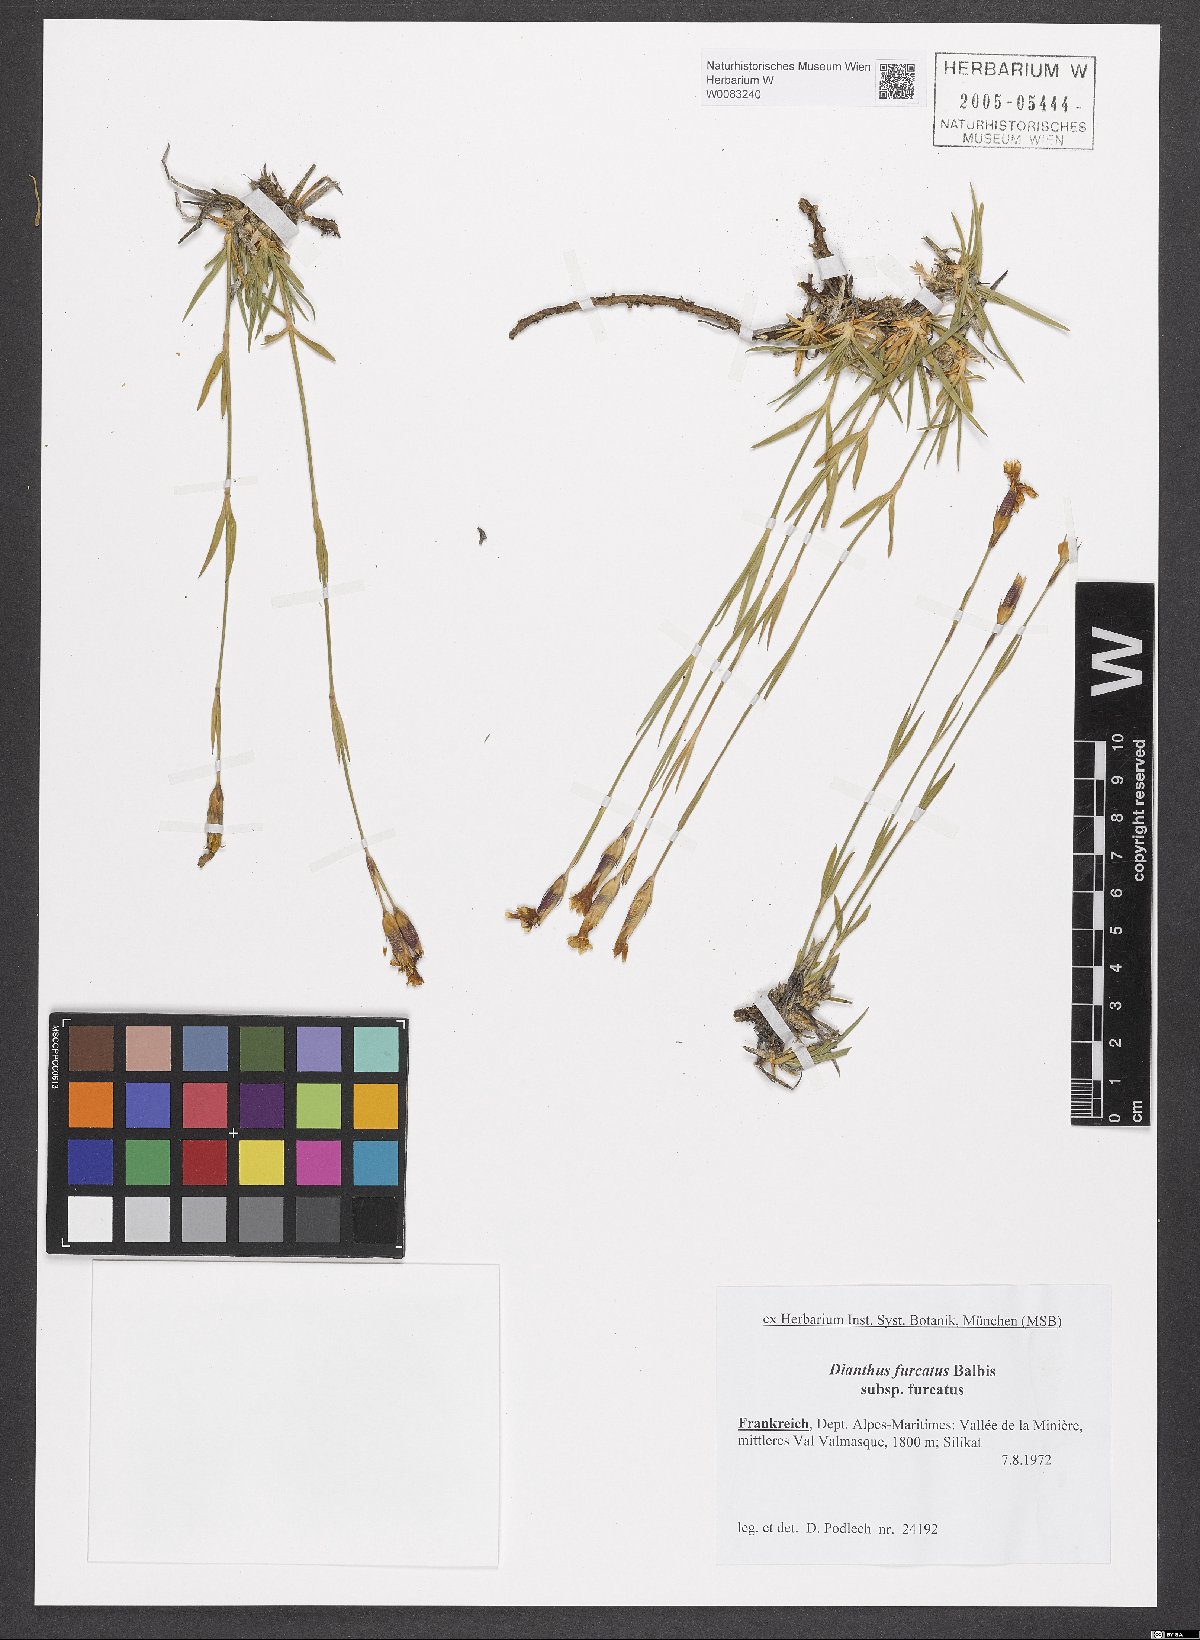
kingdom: Plantae
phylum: Tracheophyta
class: Magnoliopsida
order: Caryophyllales
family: Caryophyllaceae
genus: Dianthus
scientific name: Dianthus furcatus
